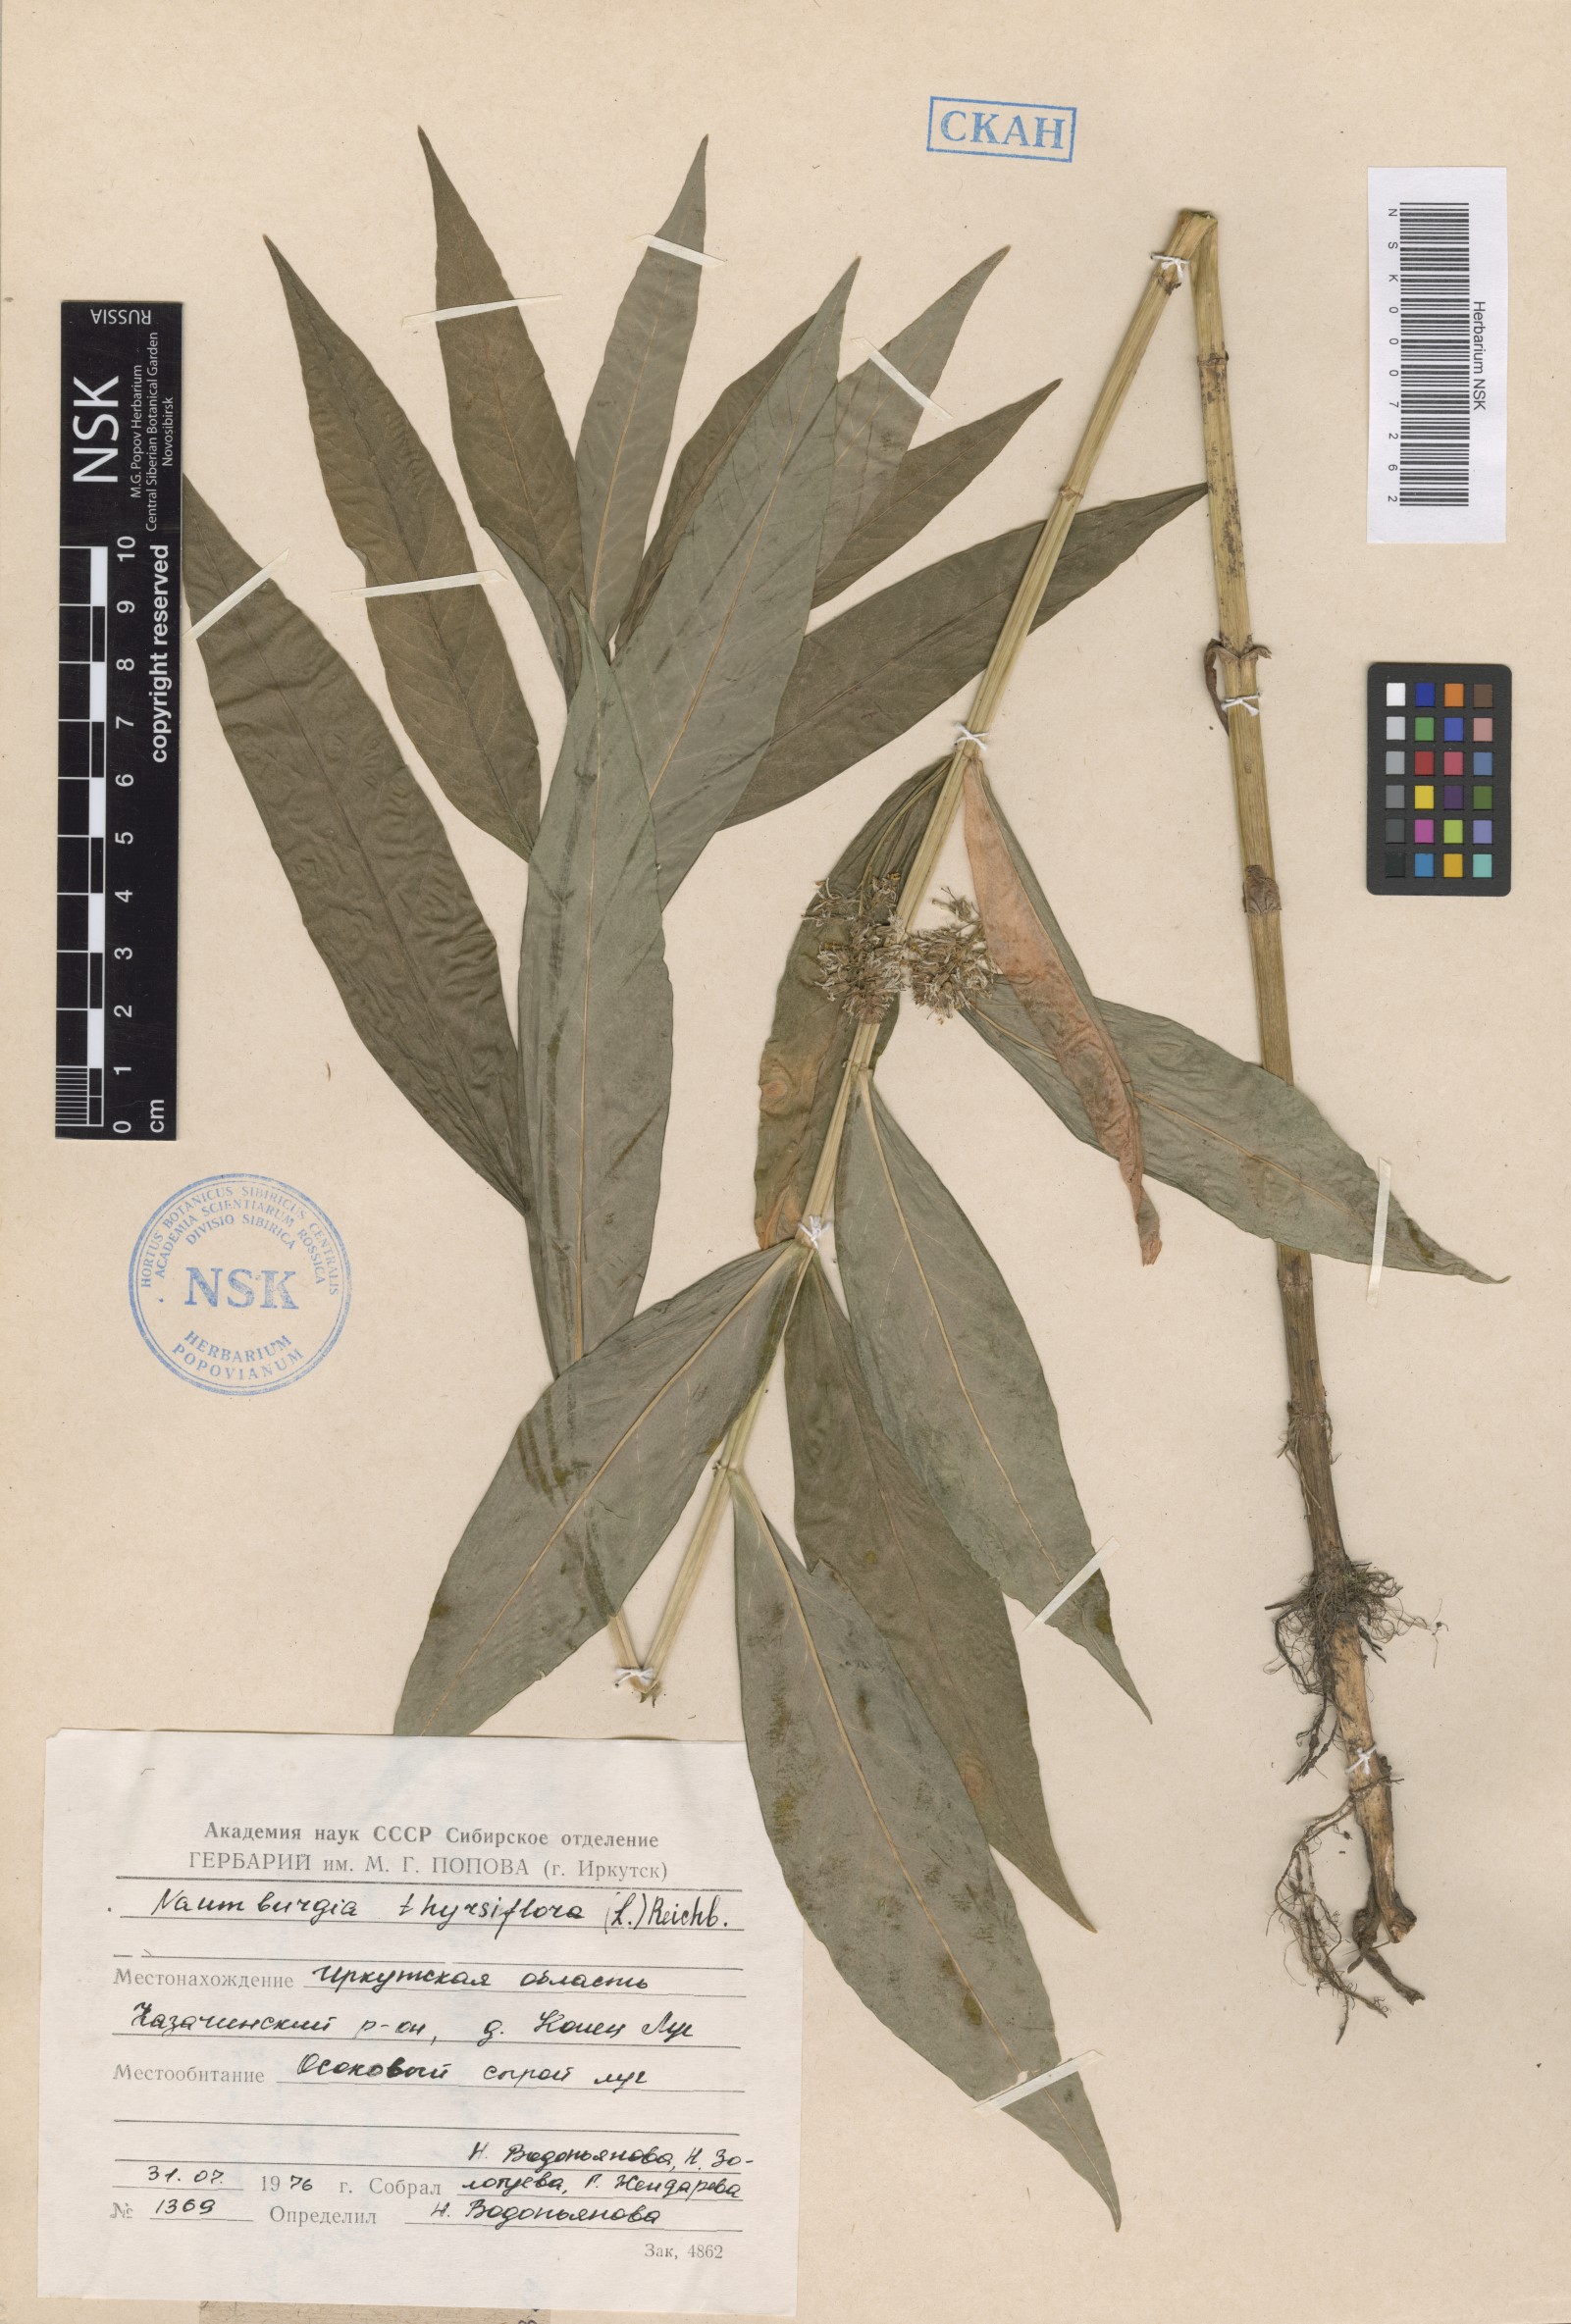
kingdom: Plantae
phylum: Tracheophyta
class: Magnoliopsida
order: Ericales
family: Primulaceae
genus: Lysimachia
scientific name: Lysimachia thyrsiflora
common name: Tufted loosestrife
